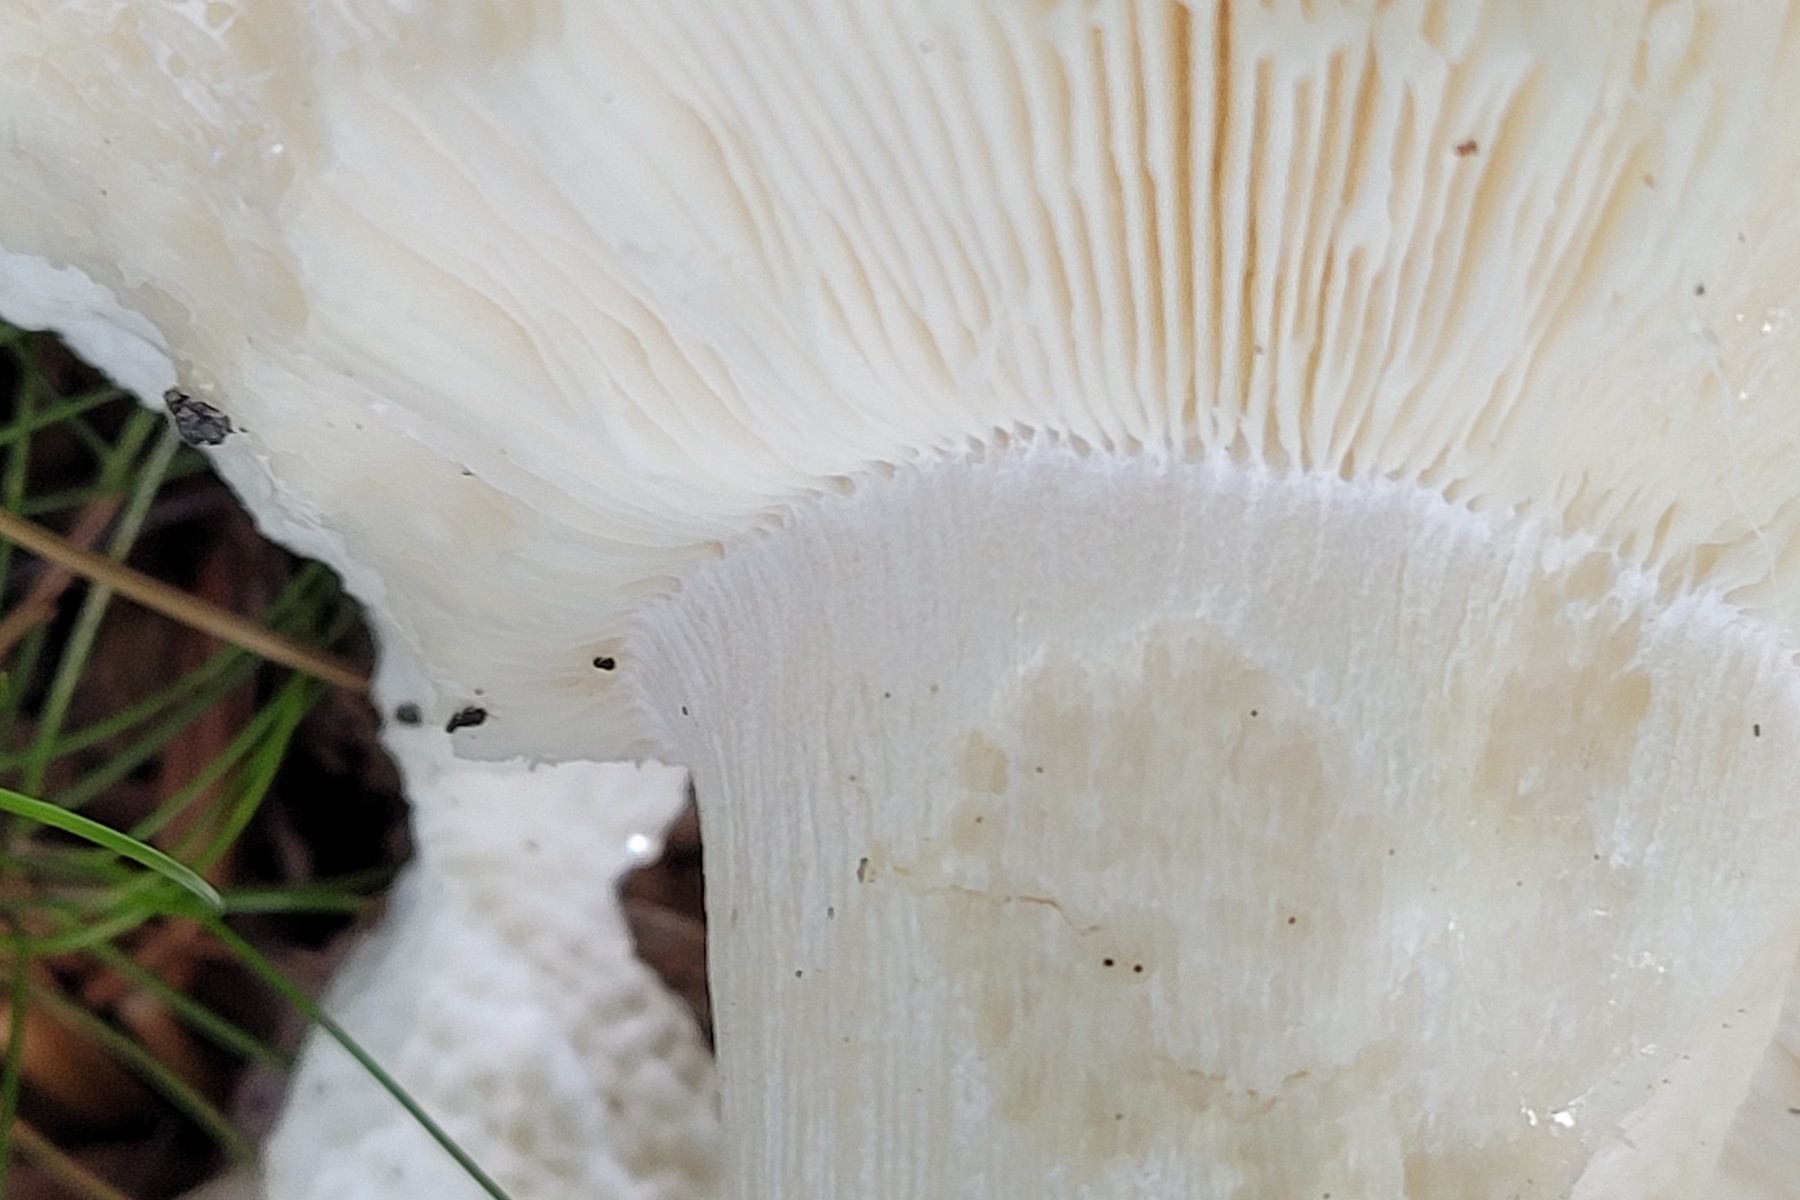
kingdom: Fungi
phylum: Basidiomycota
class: Agaricomycetes
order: Russulales
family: Russulaceae
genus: Russula
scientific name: Russula aurora
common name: rosa skørhat
